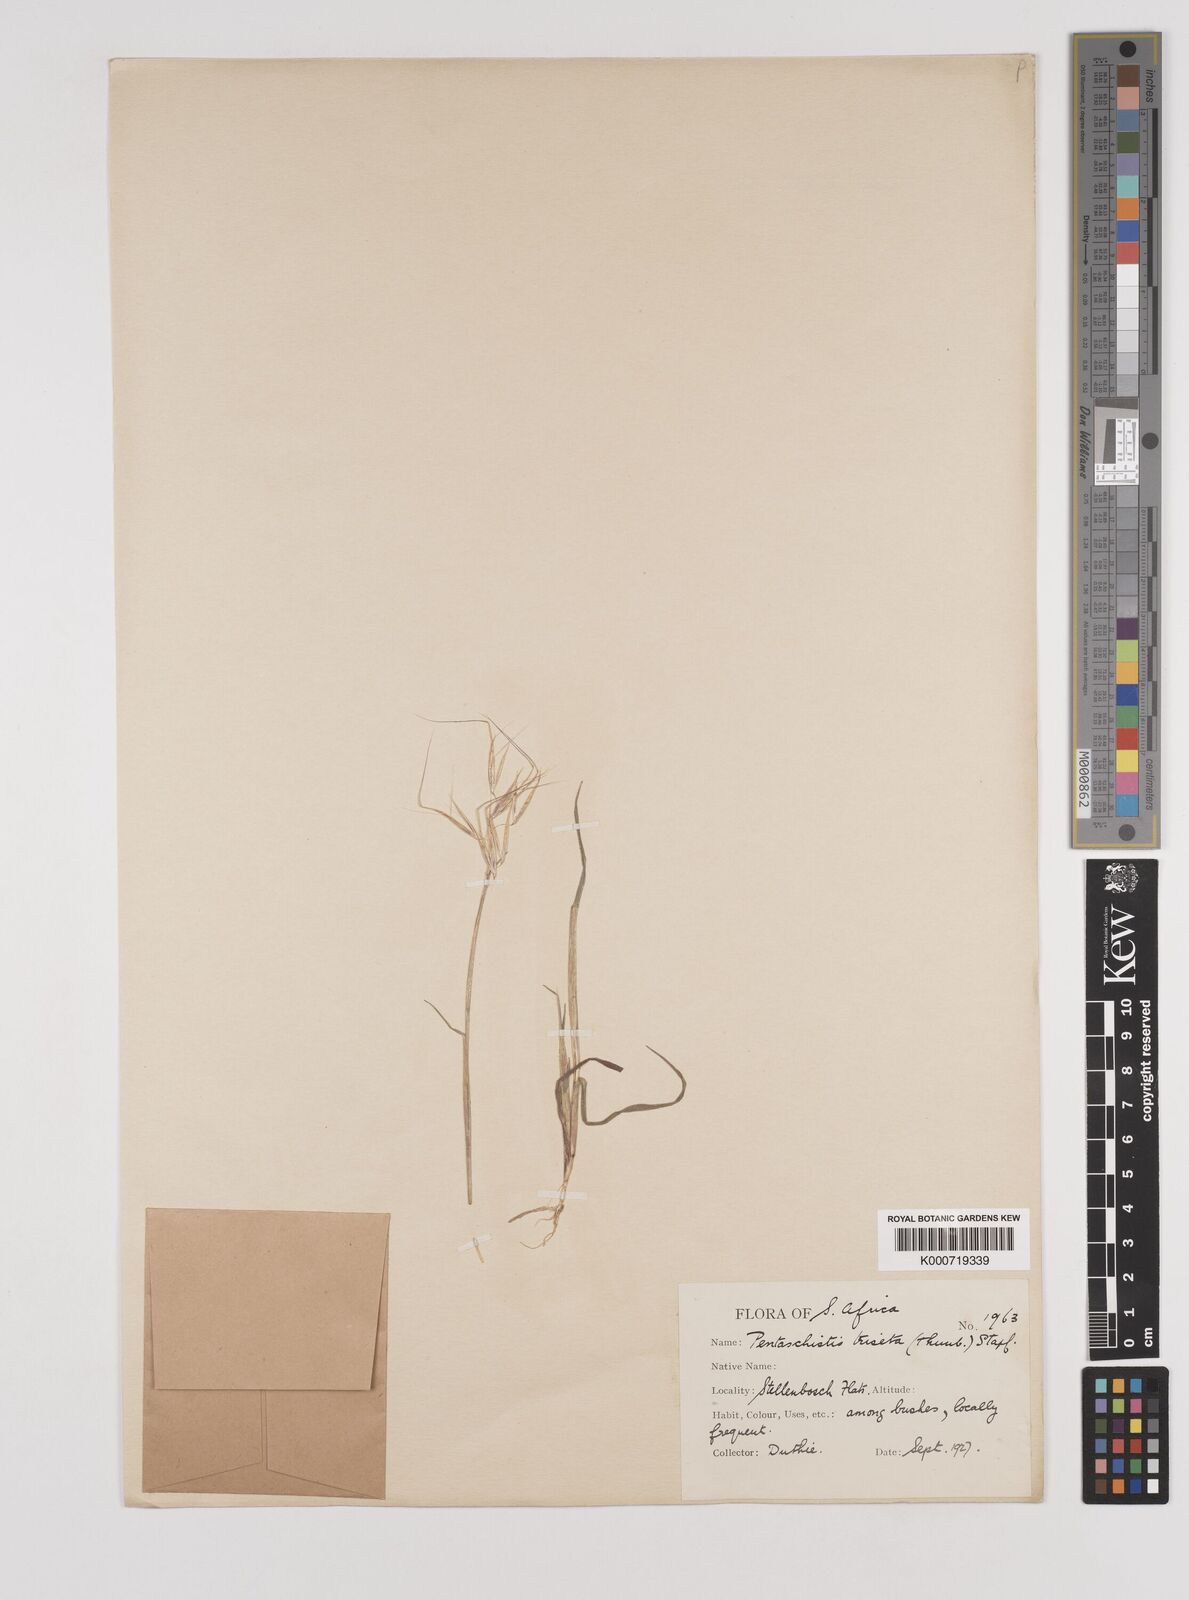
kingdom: Plantae
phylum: Tracheophyta
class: Liliopsida
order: Poales
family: Poaceae
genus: Pentameris
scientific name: Pentameris triseta
